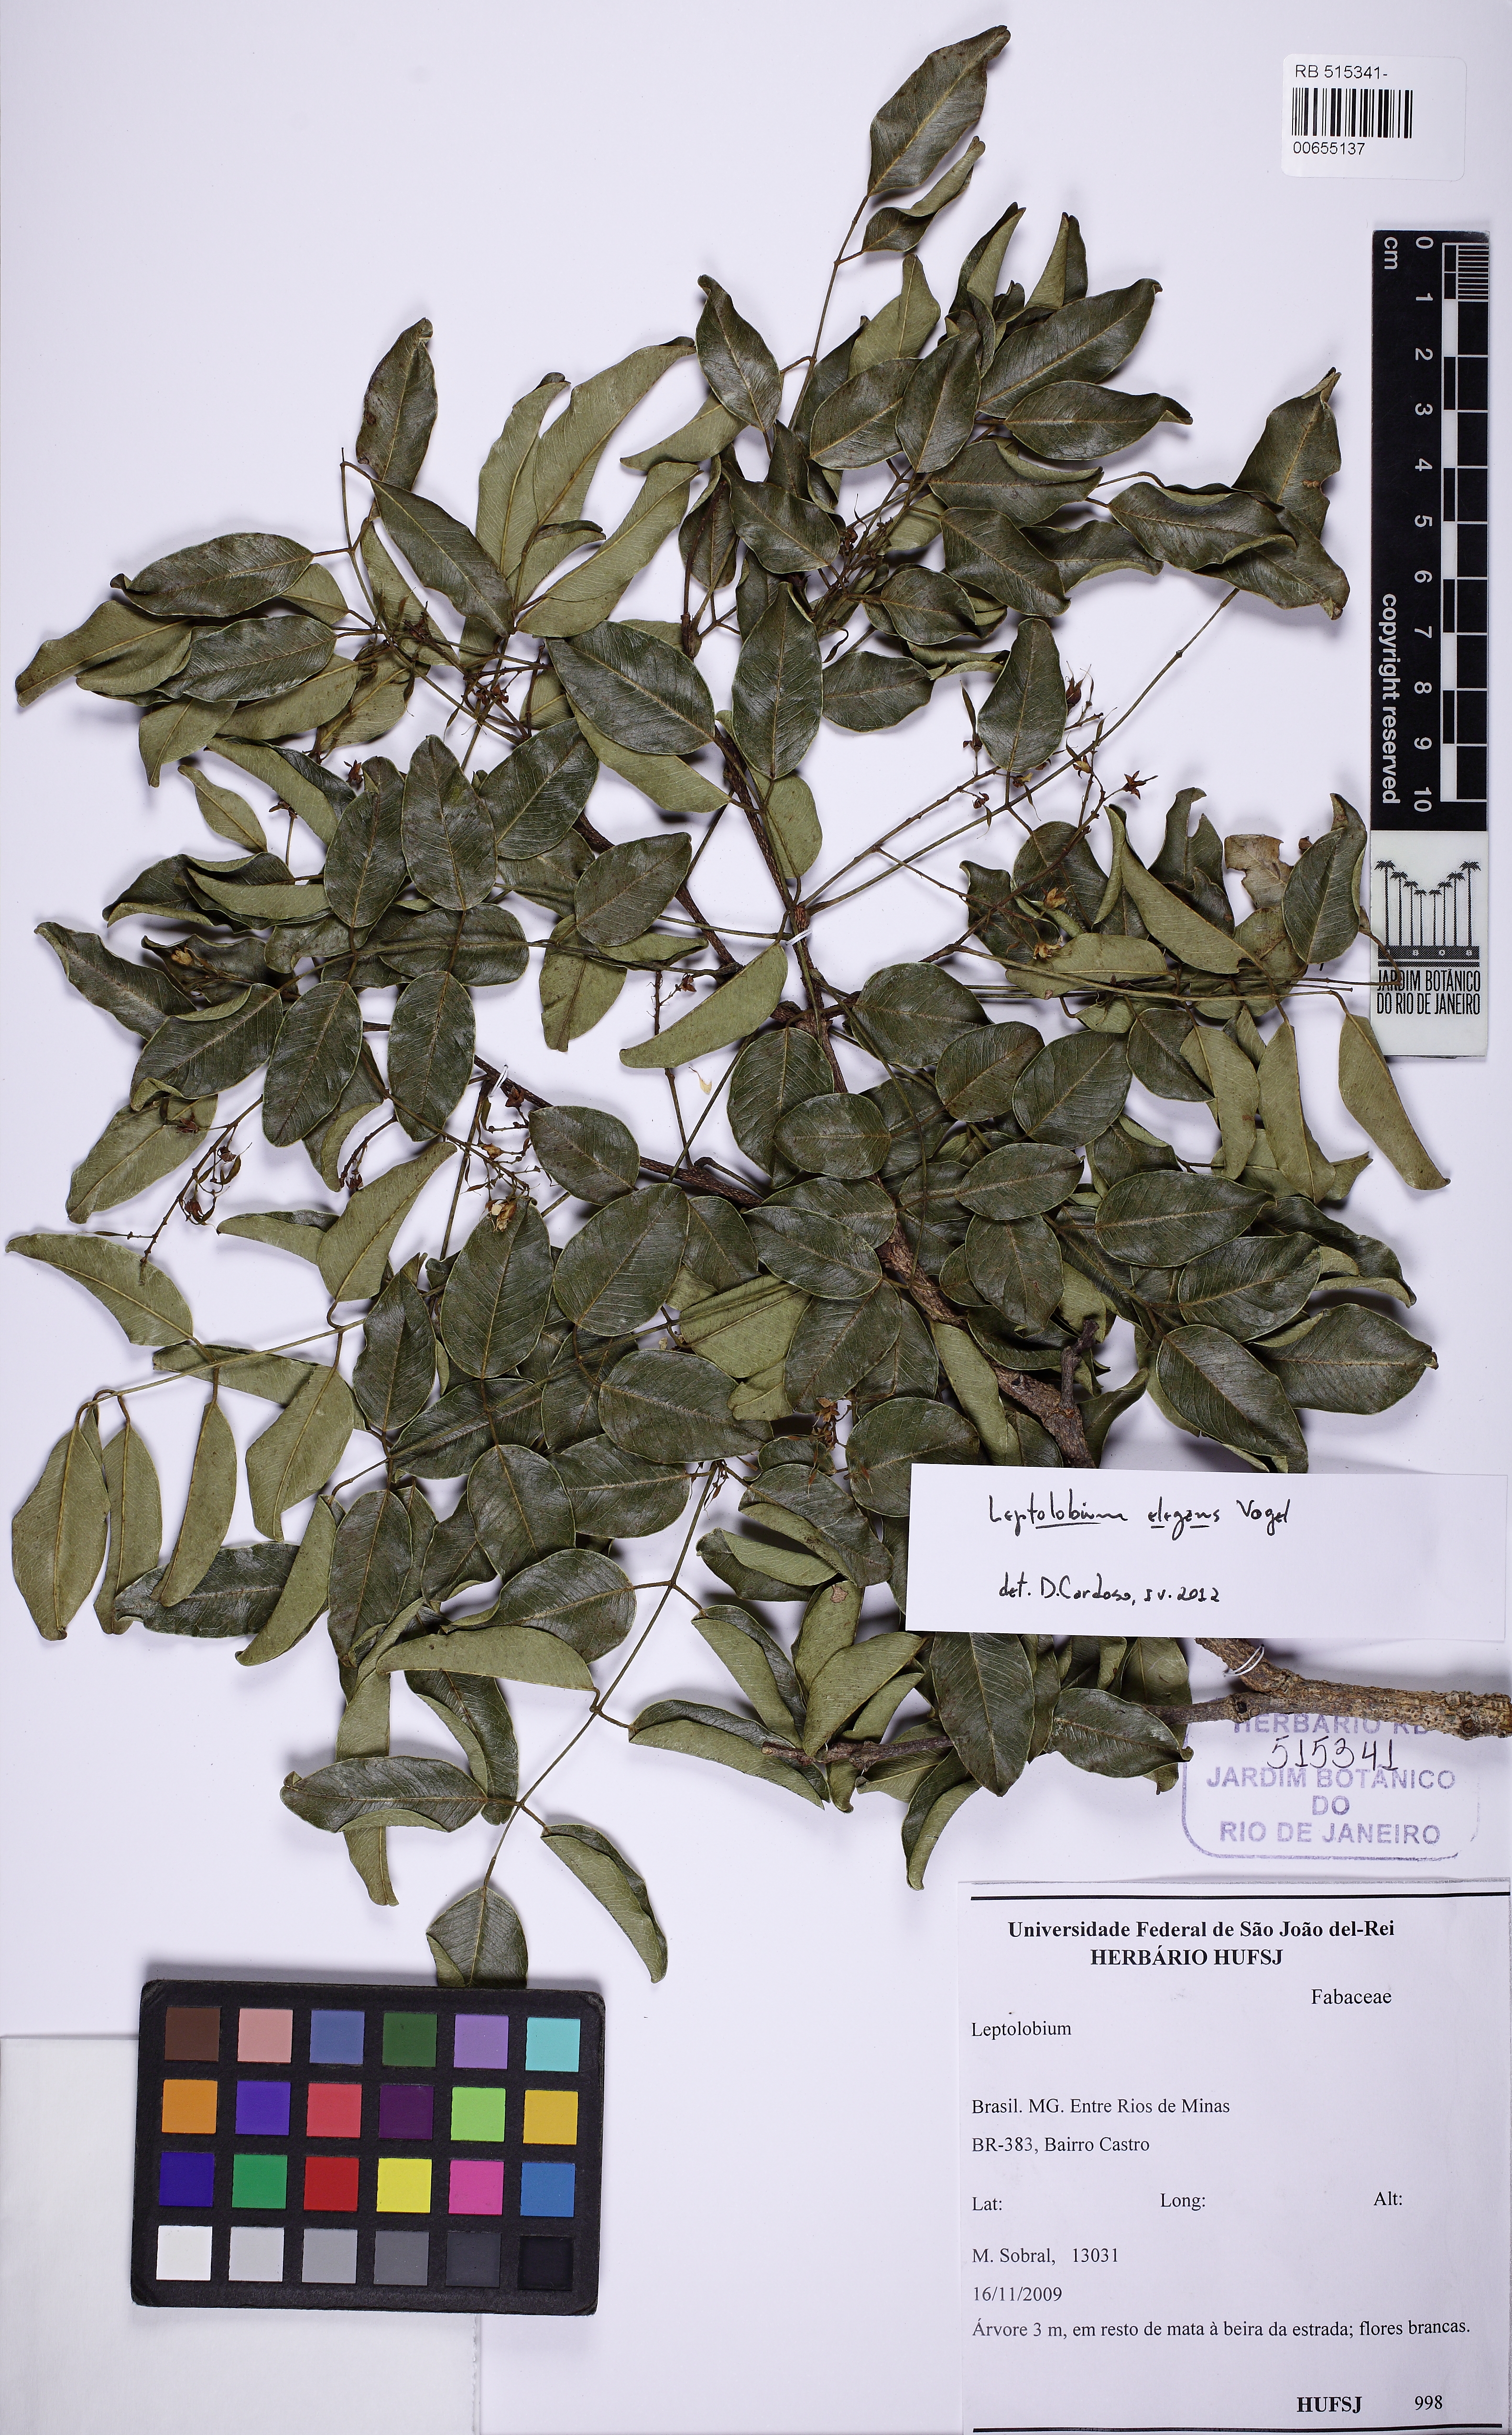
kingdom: Plantae
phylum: Tracheophyta
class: Magnoliopsida
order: Fabales
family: Fabaceae
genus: Leptolobium
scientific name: Leptolobium elegans
